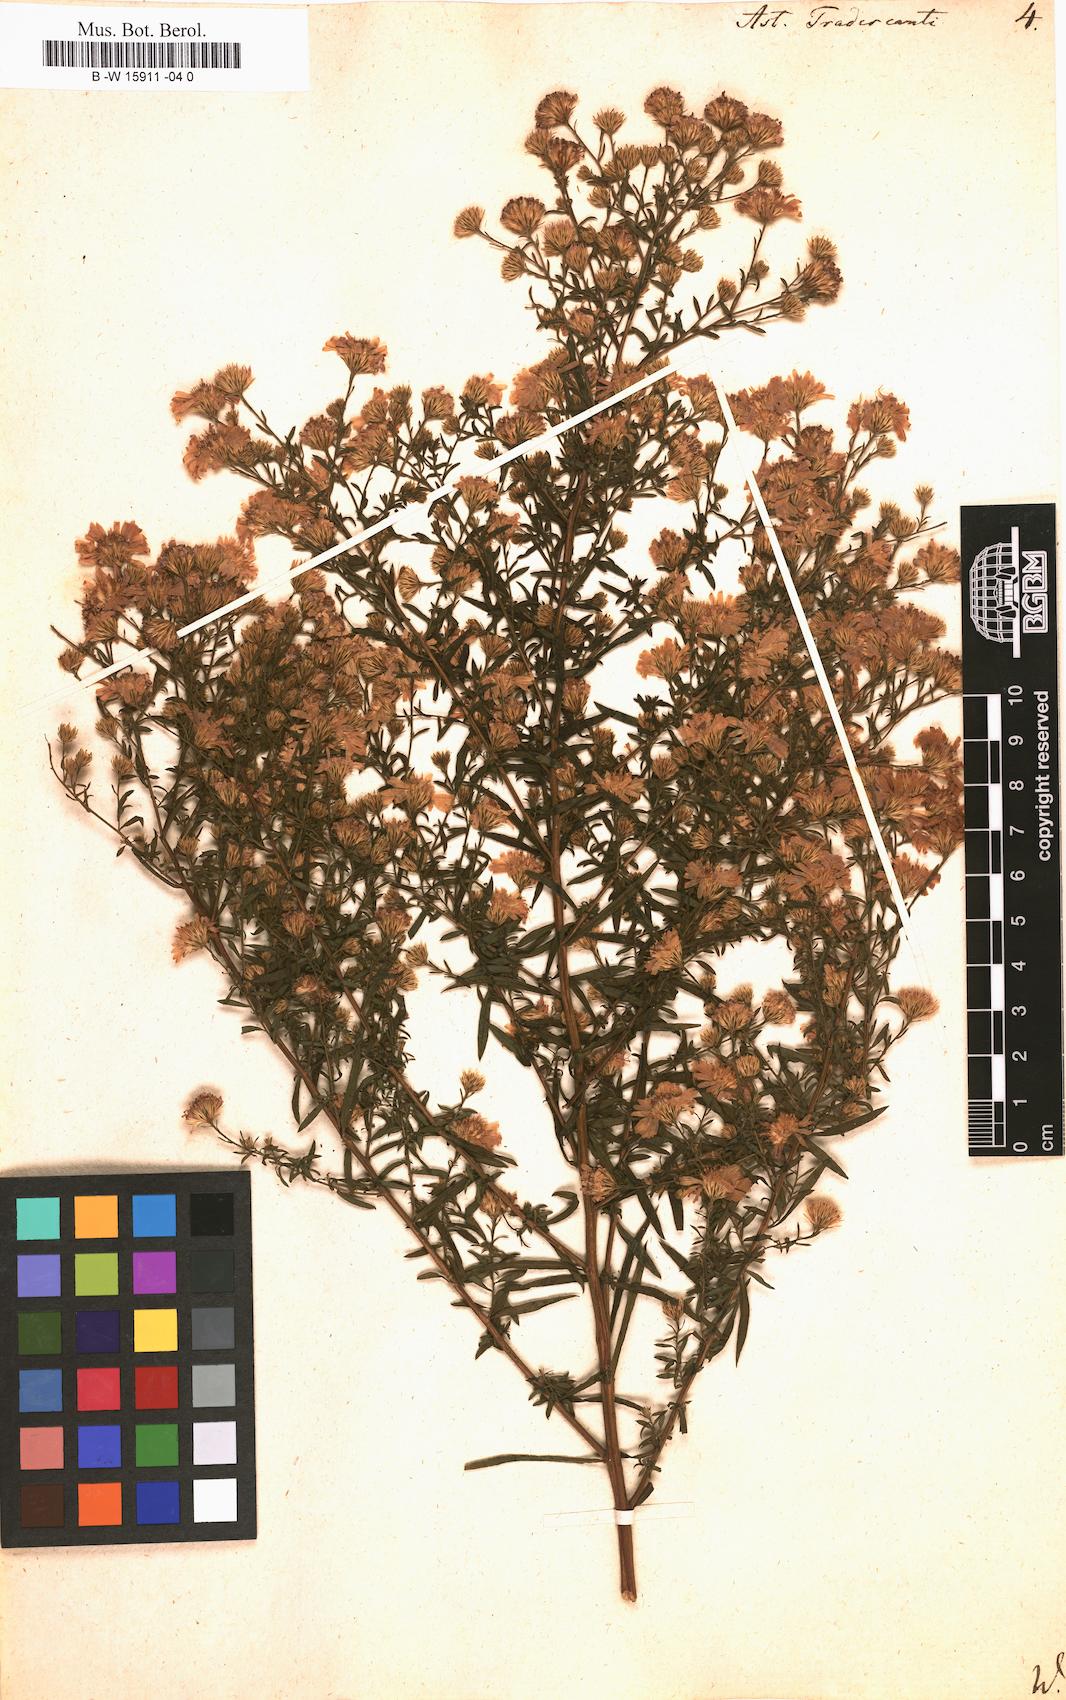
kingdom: Plantae
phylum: Tracheophyta
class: Magnoliopsida
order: Asterales
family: Asteraceae
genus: Aster
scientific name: Aster tradescanti
